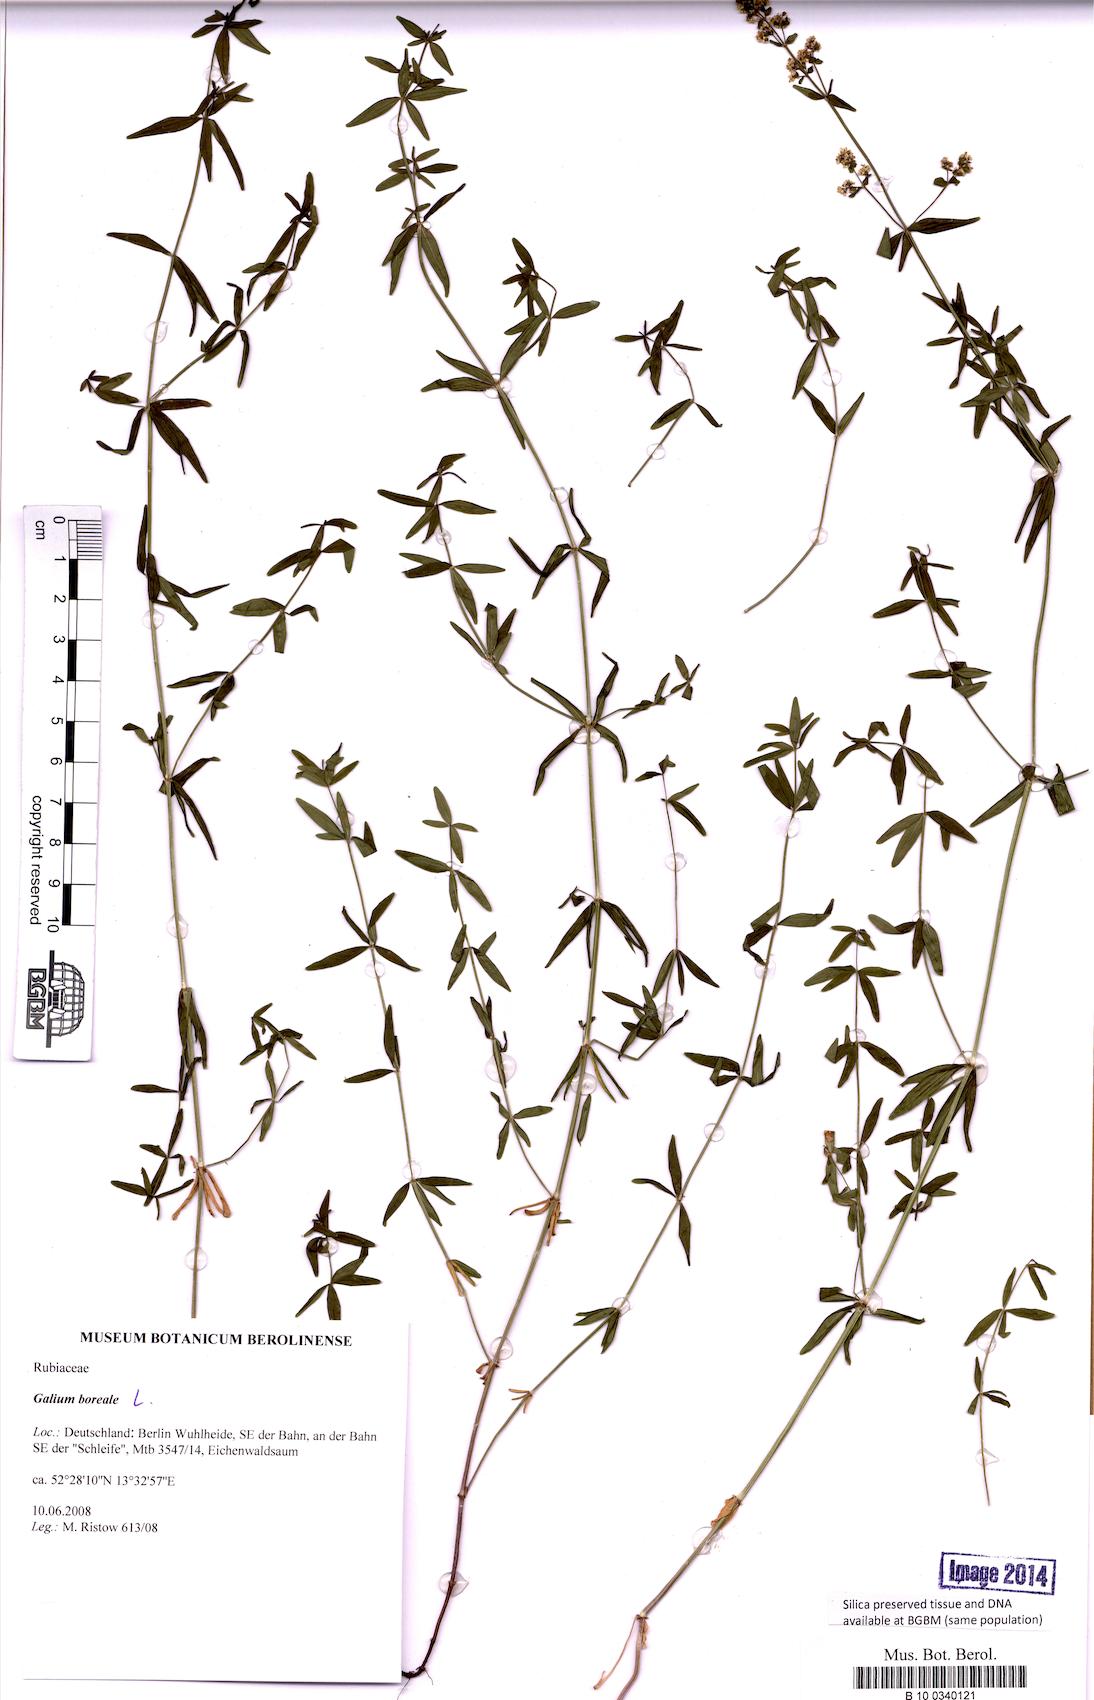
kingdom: Plantae
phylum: Tracheophyta
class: Magnoliopsida
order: Gentianales
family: Rubiaceae
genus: Galium
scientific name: Galium boreale
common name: Northern bedstraw
